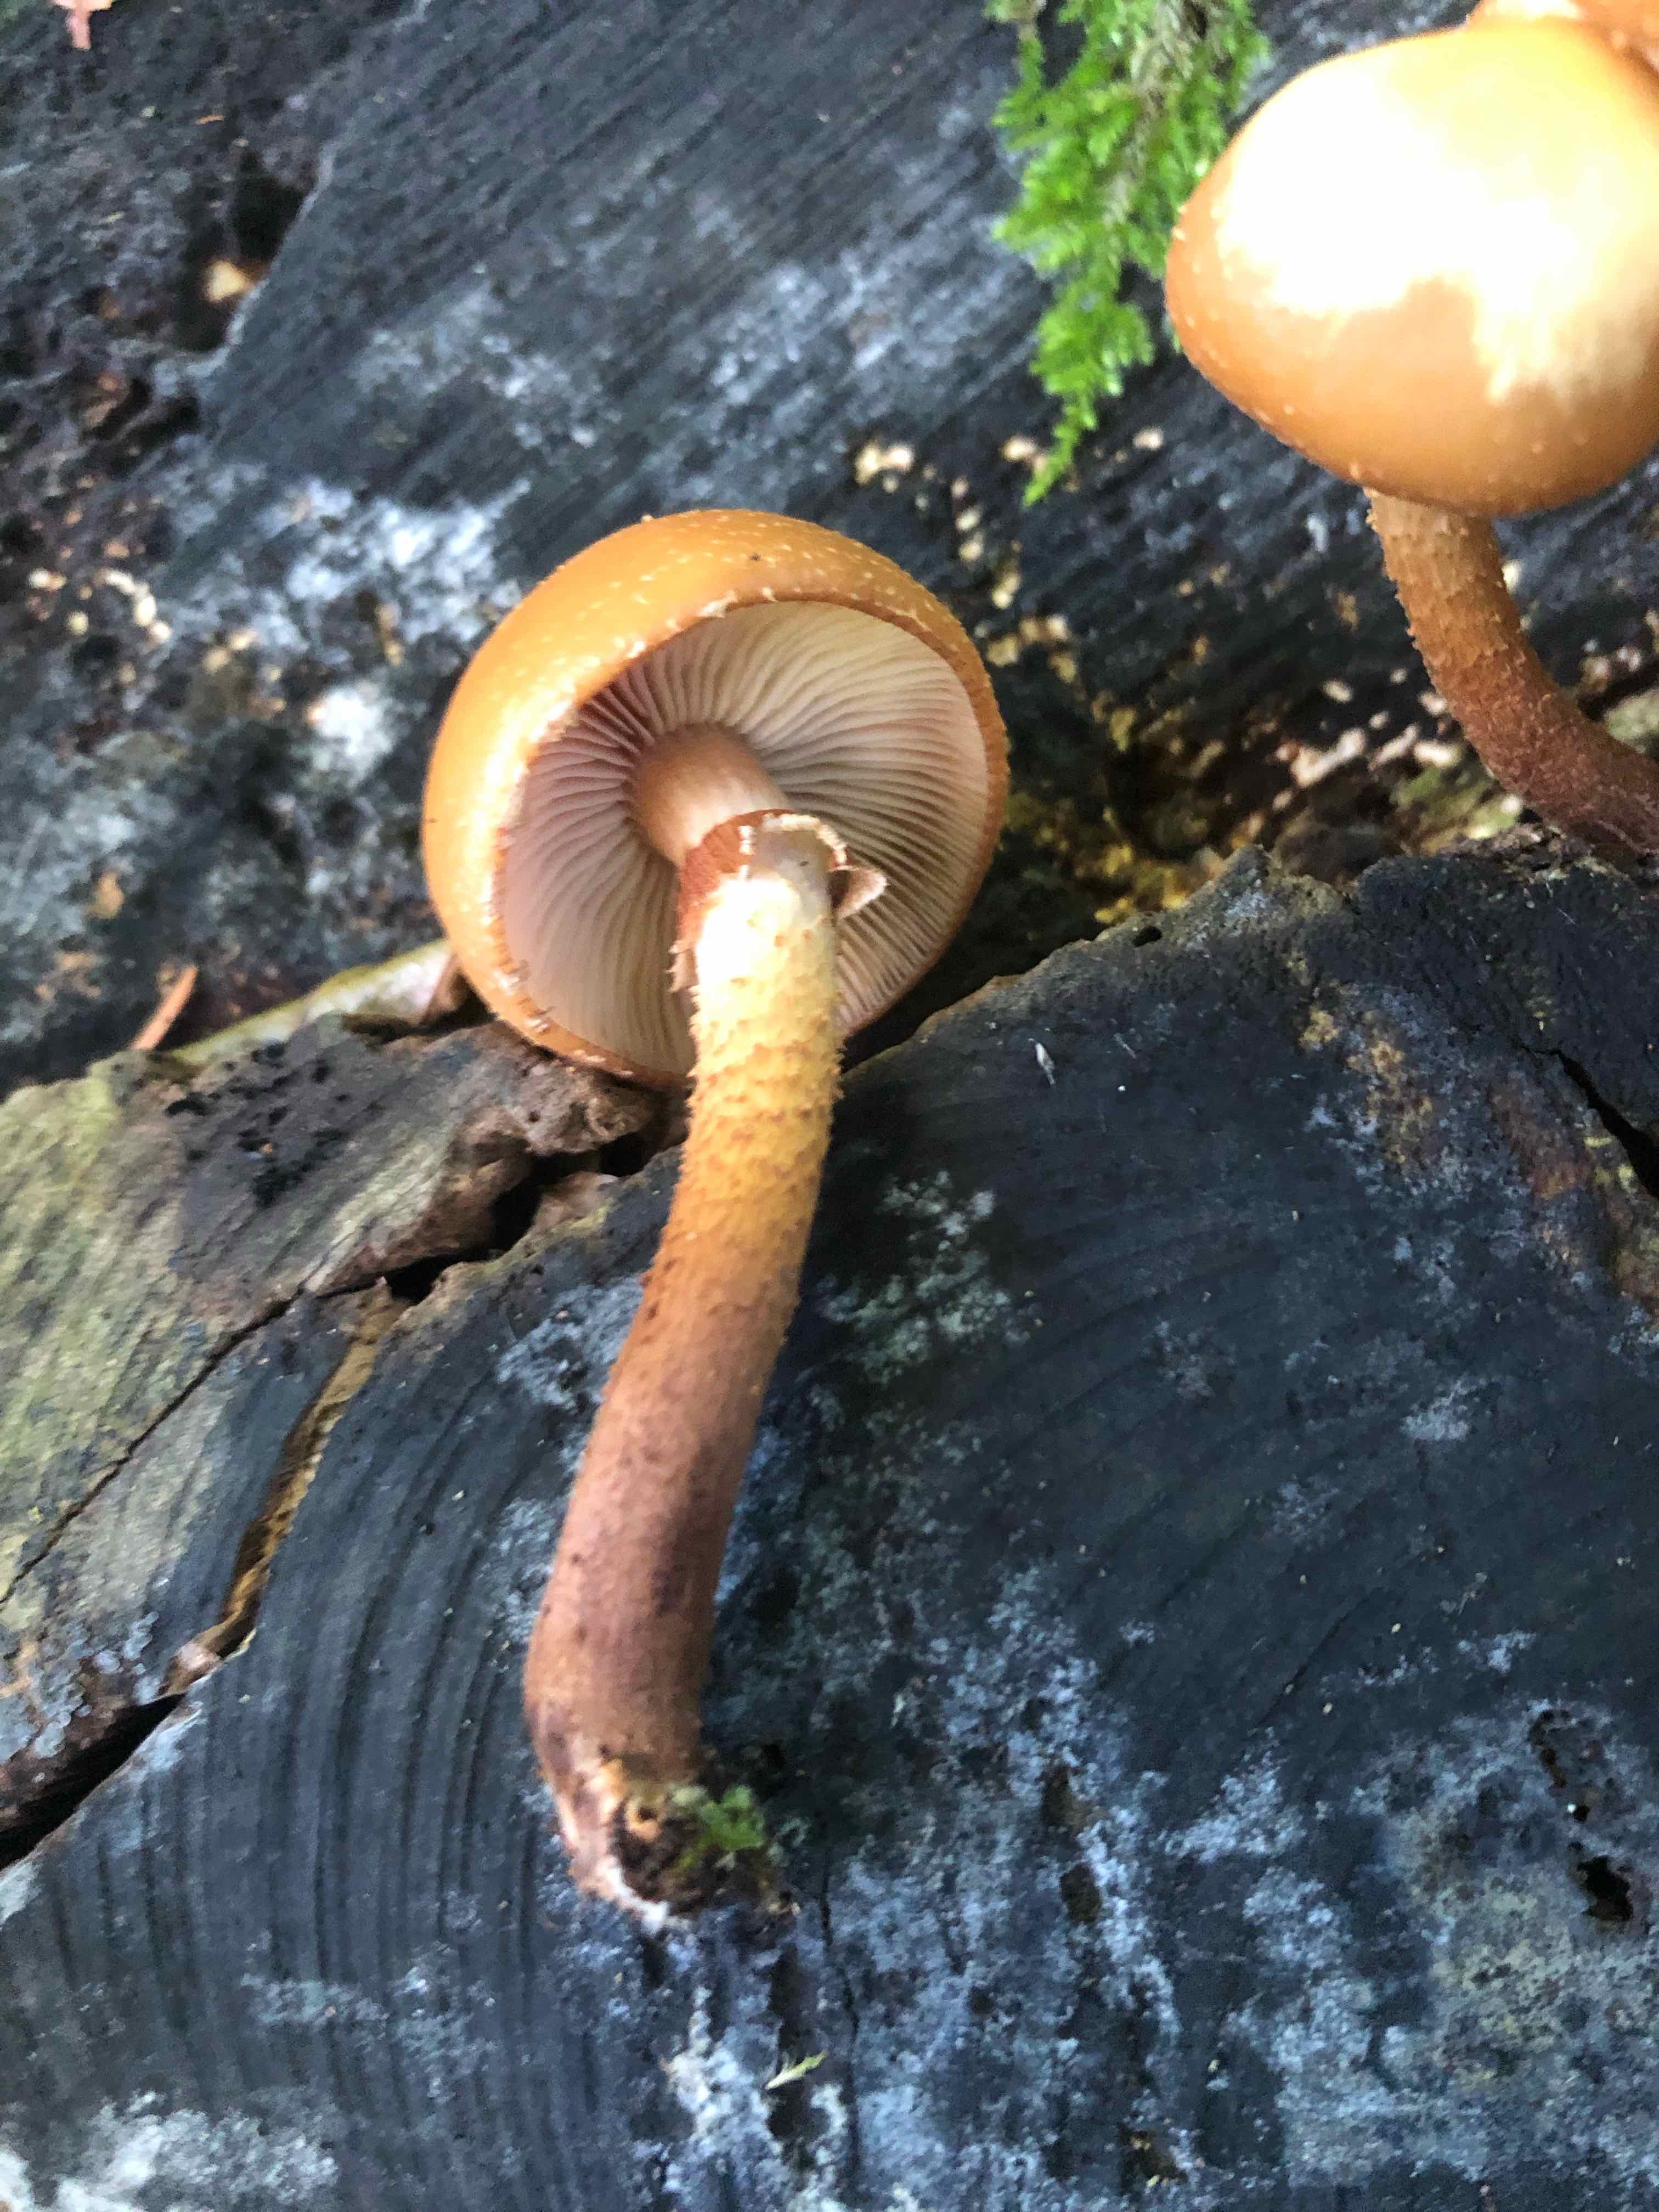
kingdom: Fungi
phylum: Basidiomycota
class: Agaricomycetes
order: Agaricales
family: Strophariaceae
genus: Kuehneromyces
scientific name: Kuehneromyces mutabilis
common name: foranderlig skælhat
